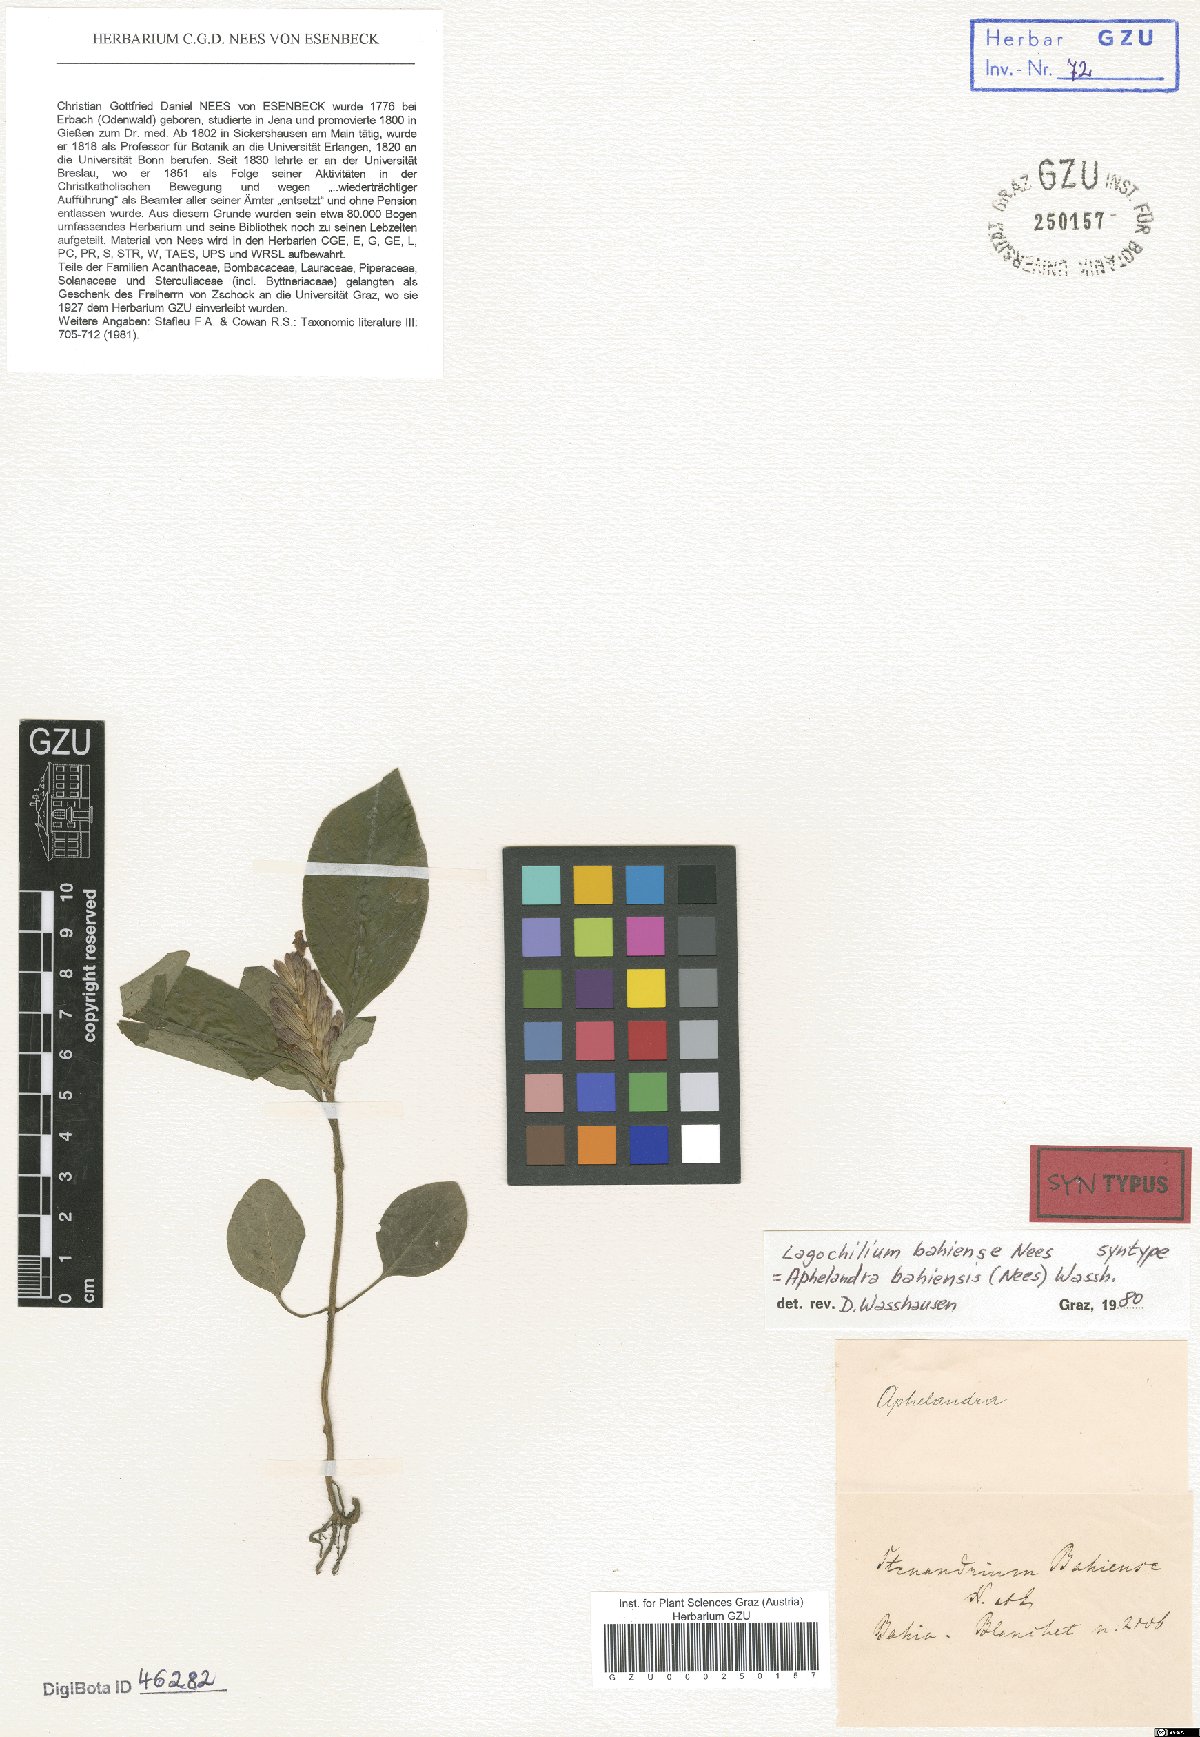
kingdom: Plantae
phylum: Tracheophyta
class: Magnoliopsida
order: Lamiales
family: Acanthaceae
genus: Aphelandra
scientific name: Aphelandra bahiensis
